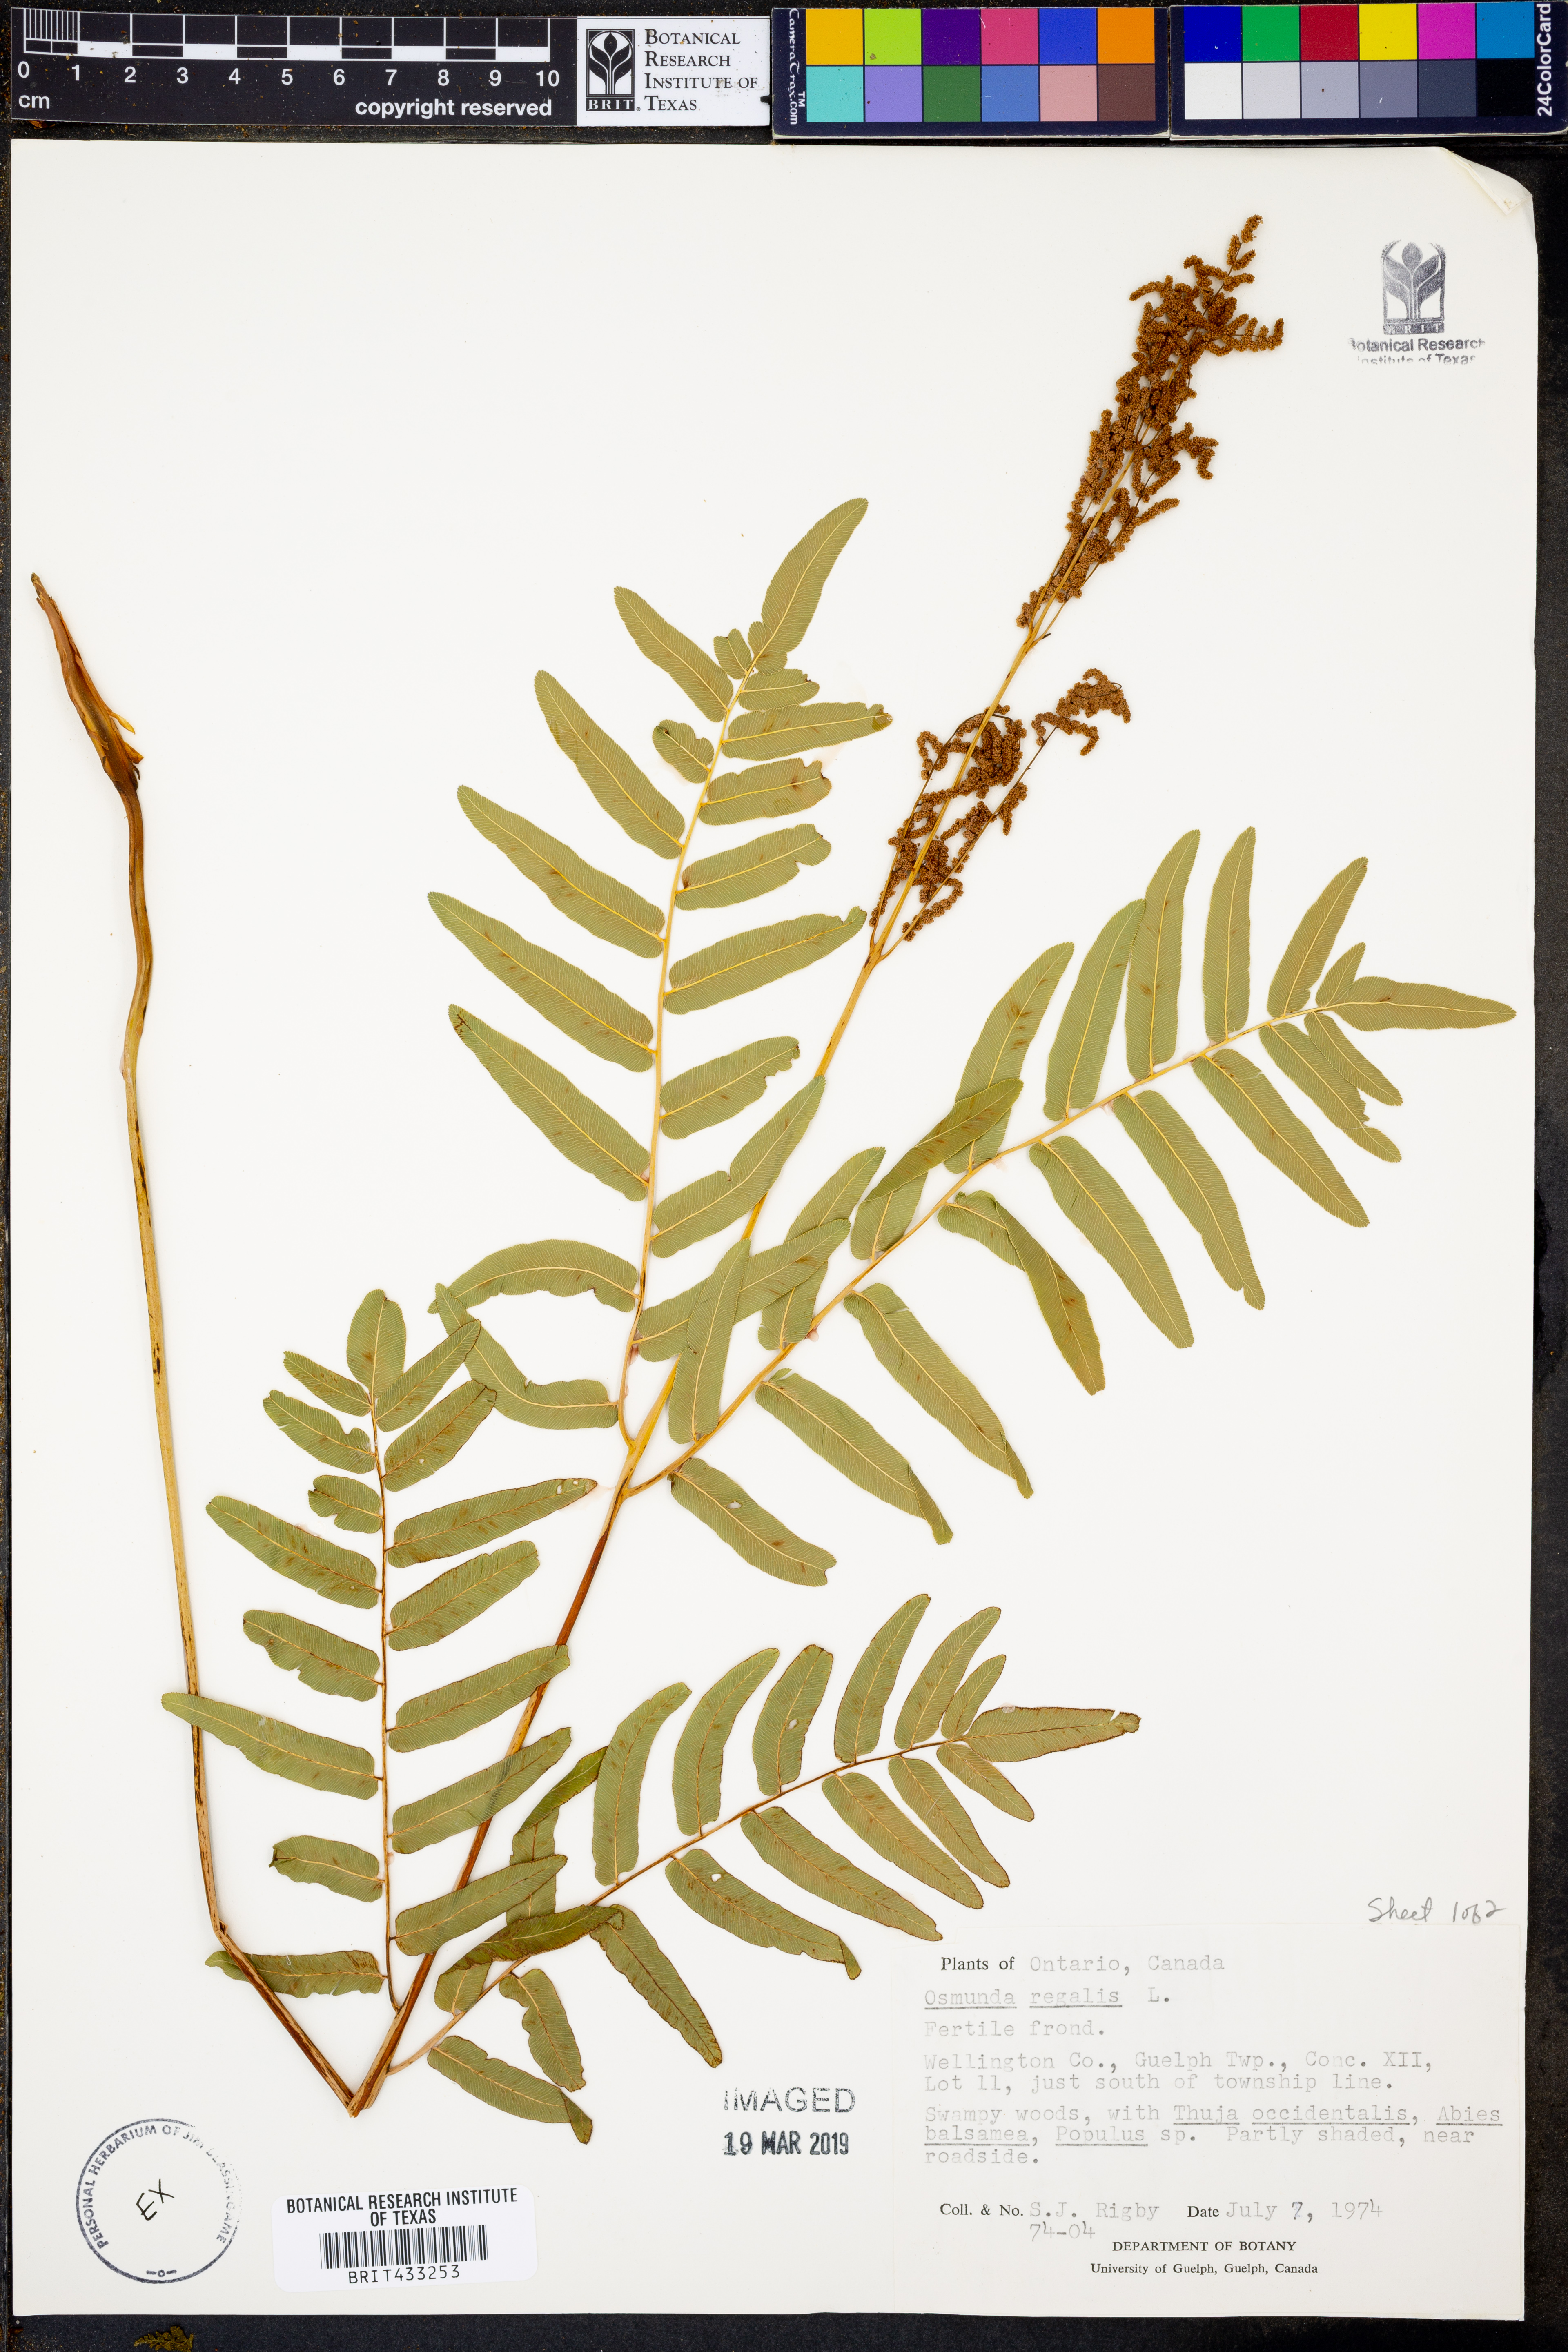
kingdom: Plantae
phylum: Tracheophyta
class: Polypodiopsida
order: Osmundales
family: Osmundaceae
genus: Osmunda
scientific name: Osmunda regalis
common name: Royal fern
